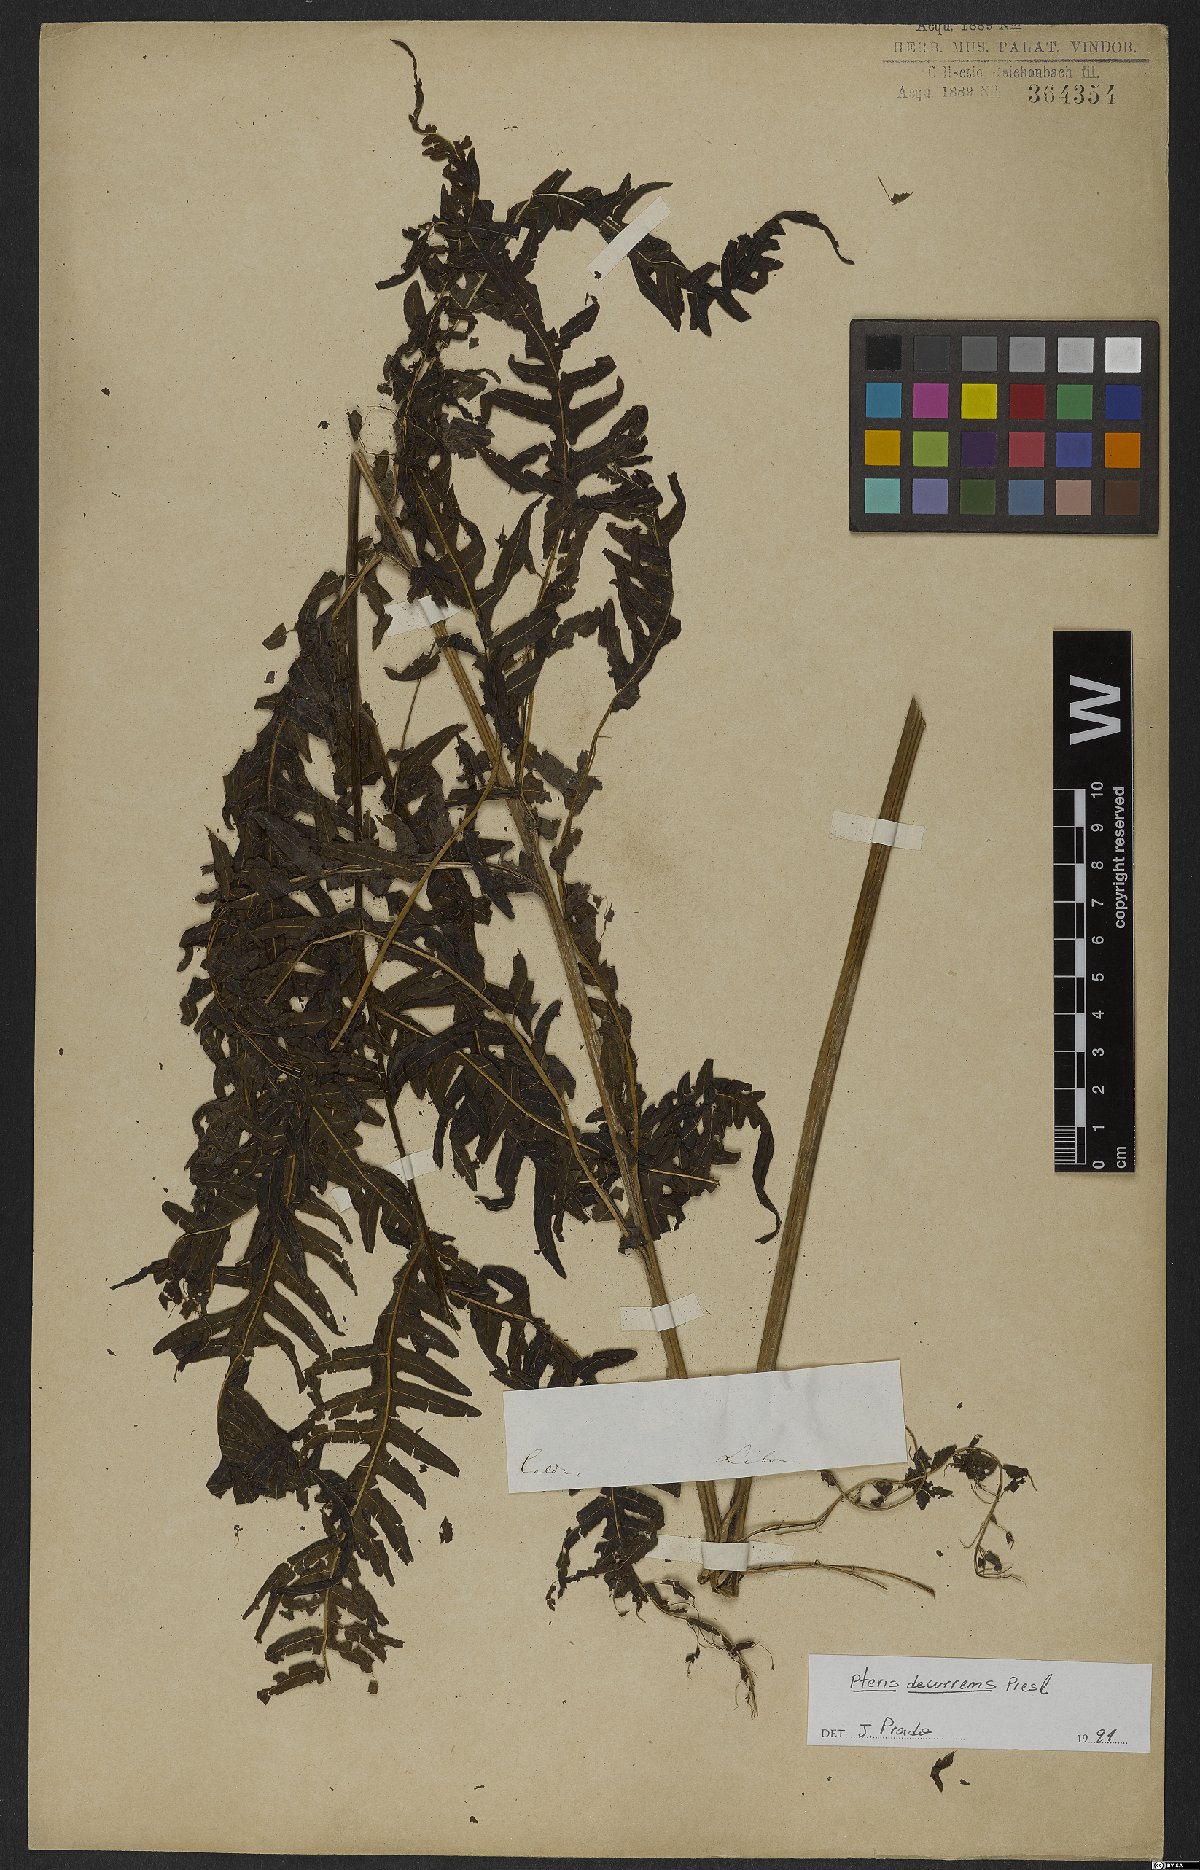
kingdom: Plantae
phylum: Tracheophyta
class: Polypodiopsida
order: Polypodiales
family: Pteridaceae
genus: Pteris
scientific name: Pteris decurrens
